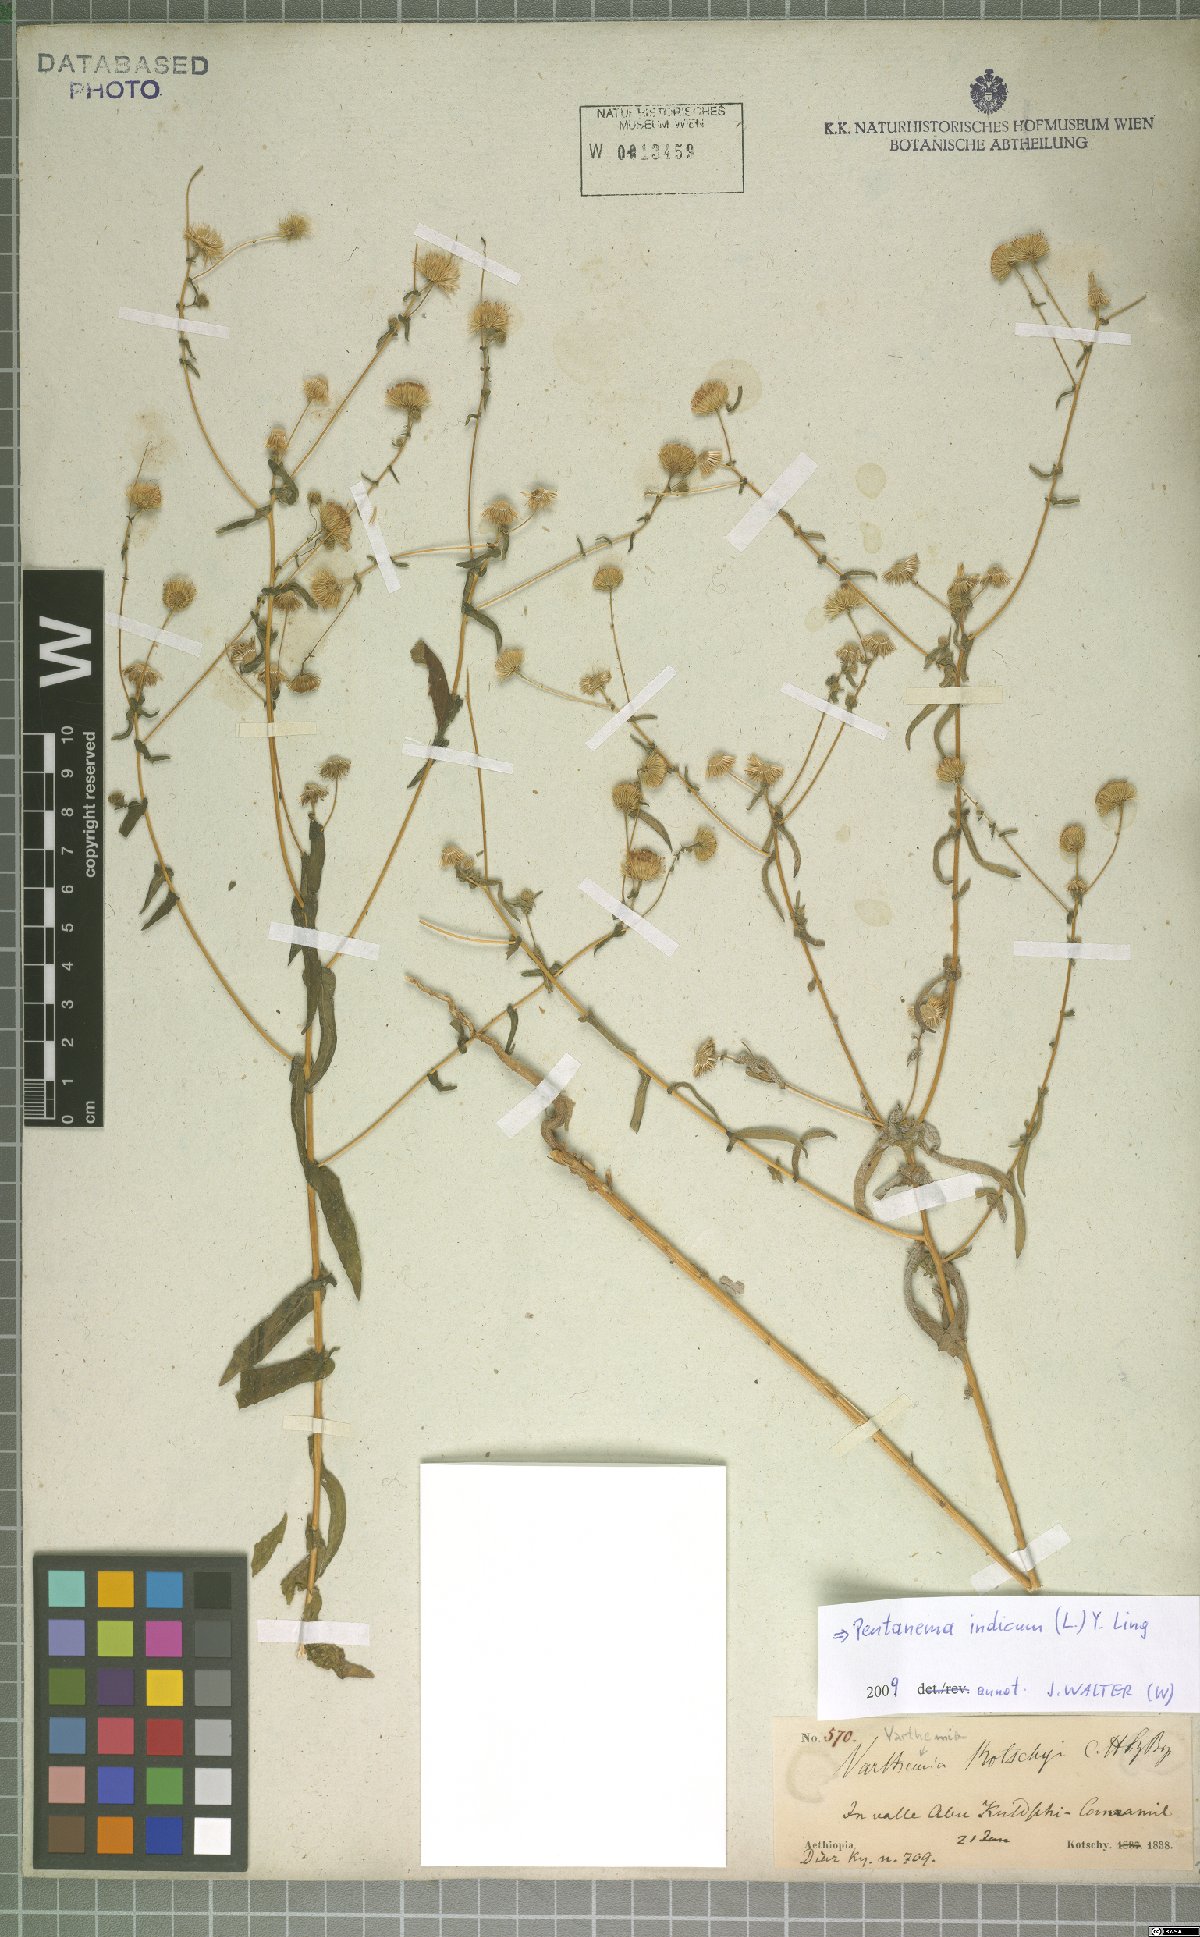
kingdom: Plantae
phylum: Tracheophyta
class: Magnoliopsida
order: Asterales
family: Asteraceae
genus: Vicoa
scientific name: Vicoa indica
